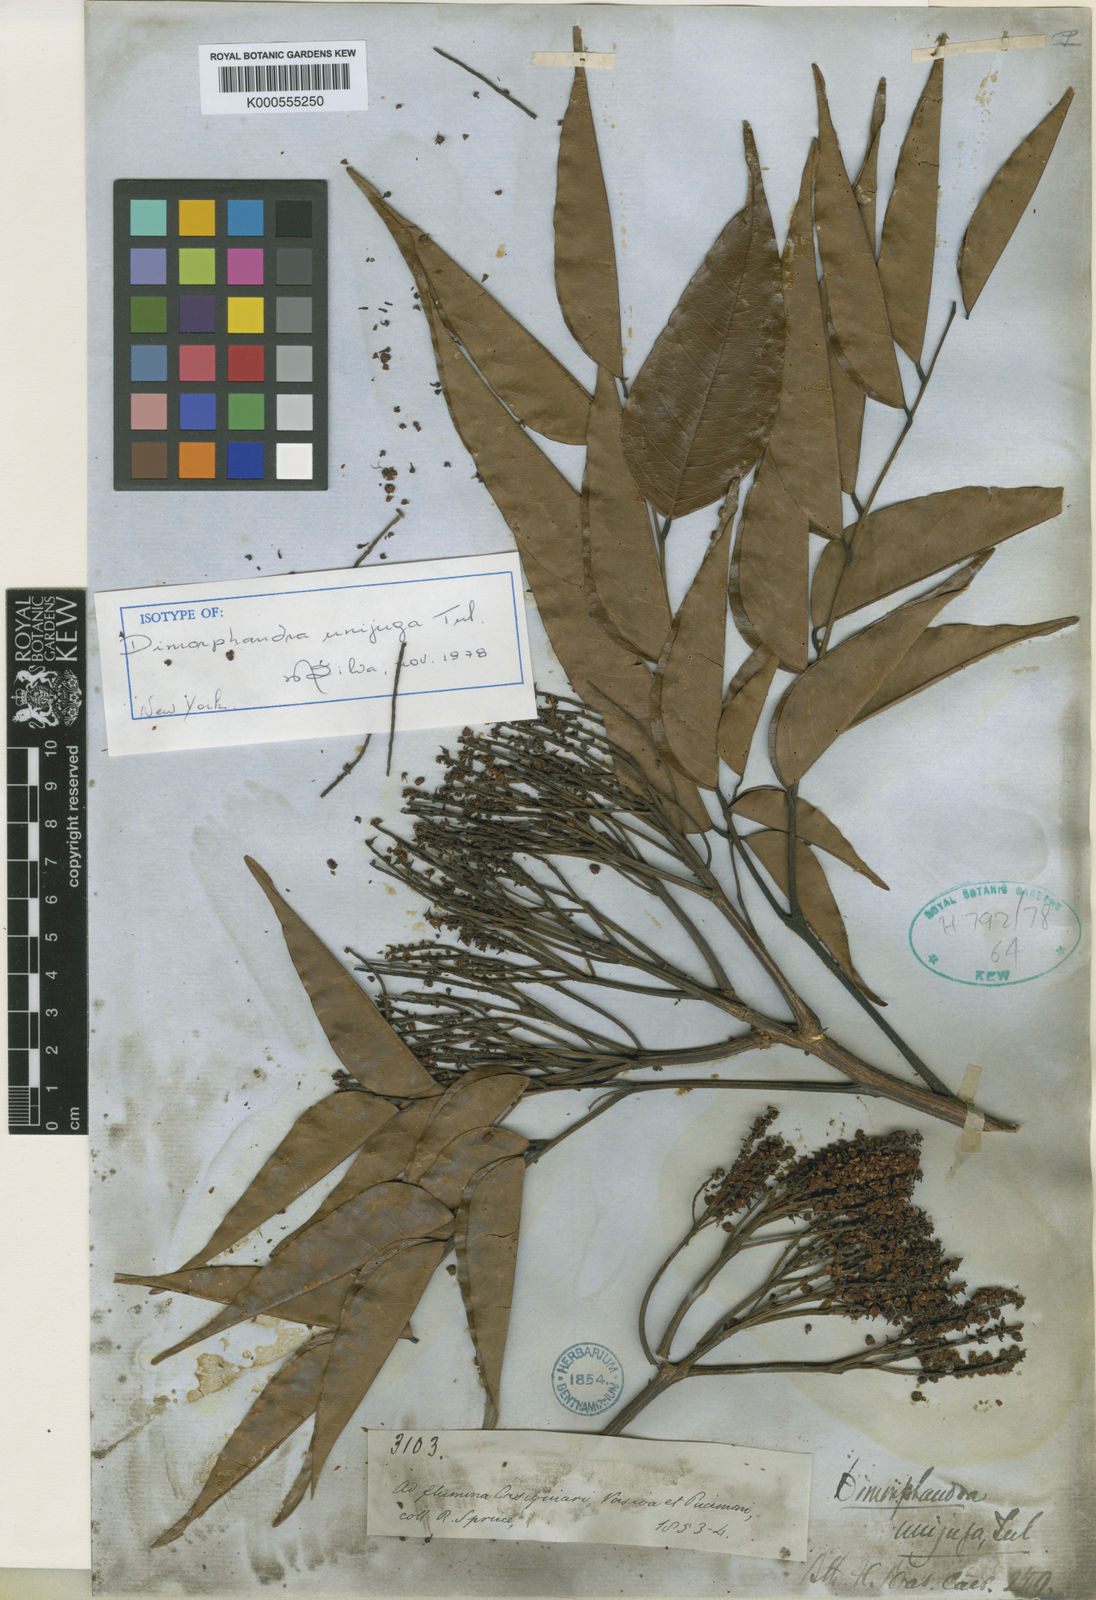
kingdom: Plantae
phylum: Tracheophyta
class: Magnoliopsida
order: Fabales
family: Fabaceae
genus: Dimorphandra
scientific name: Dimorphandra unijuga
